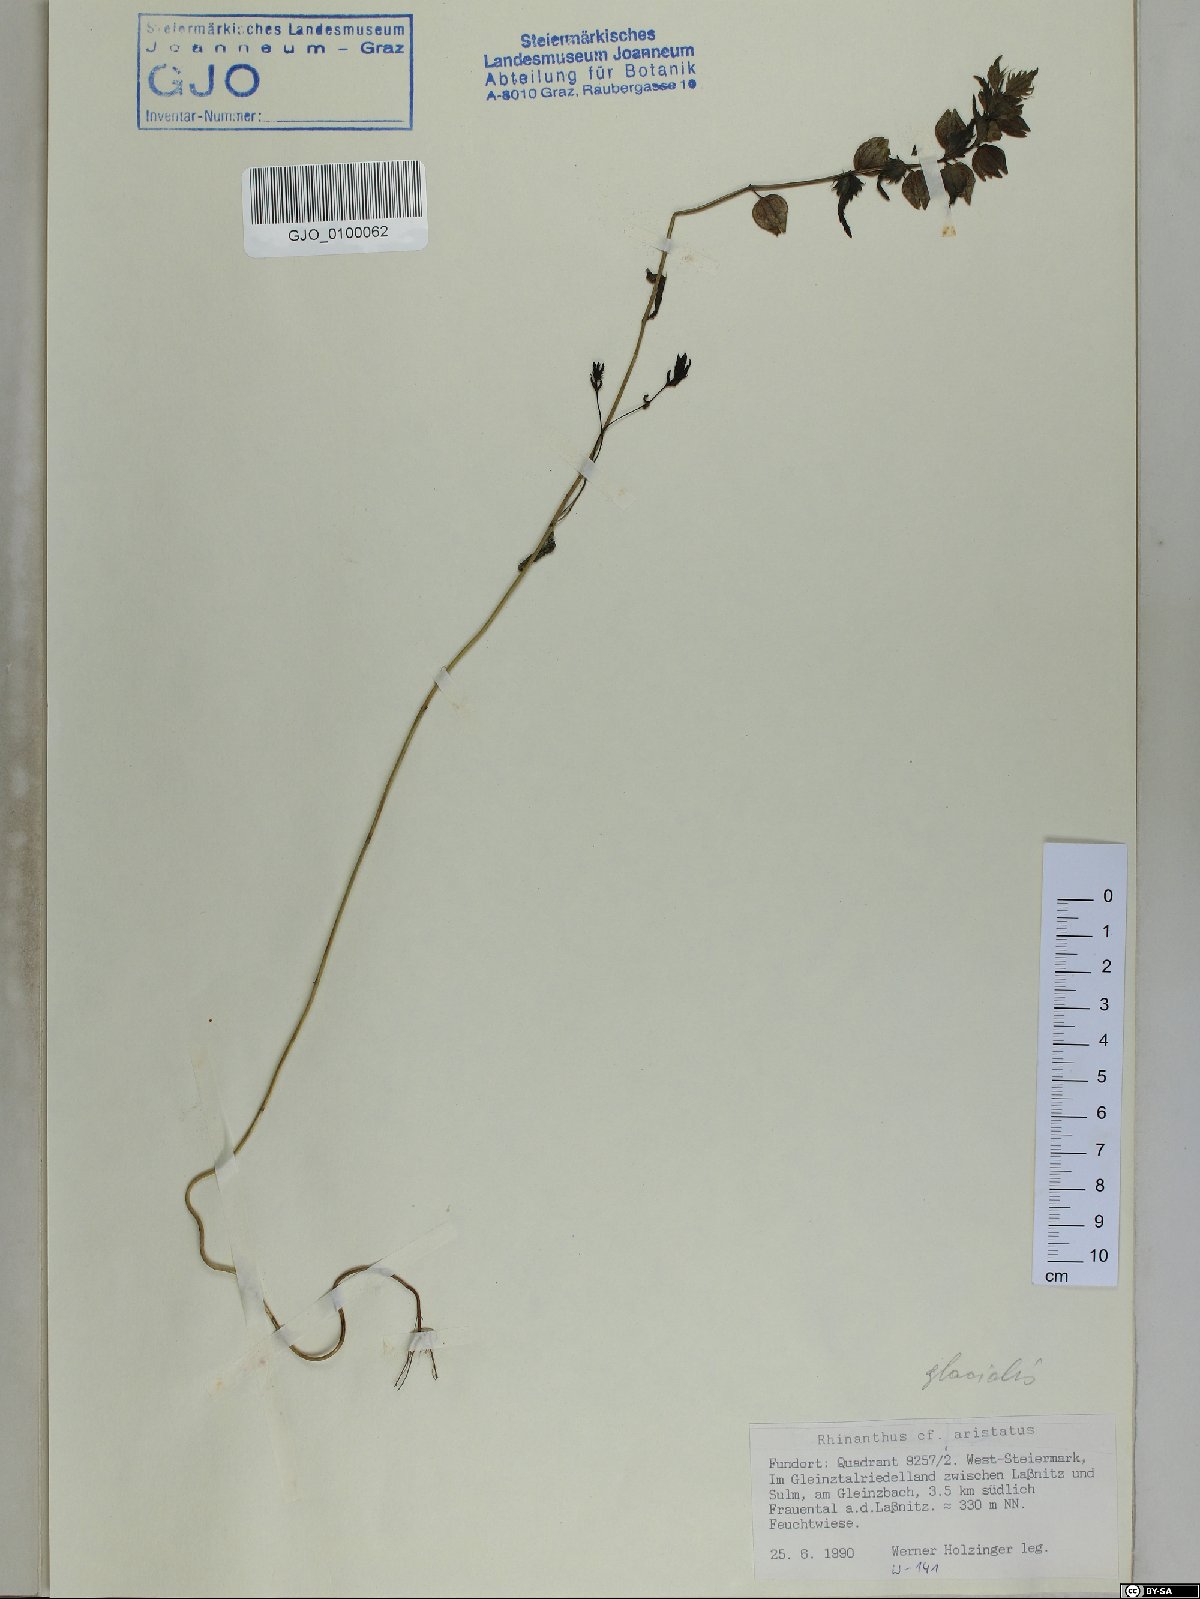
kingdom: Plantae
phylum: Tracheophyta
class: Magnoliopsida
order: Lamiales
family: Orobanchaceae
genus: Rhinanthus
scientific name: Rhinanthus glacialis
